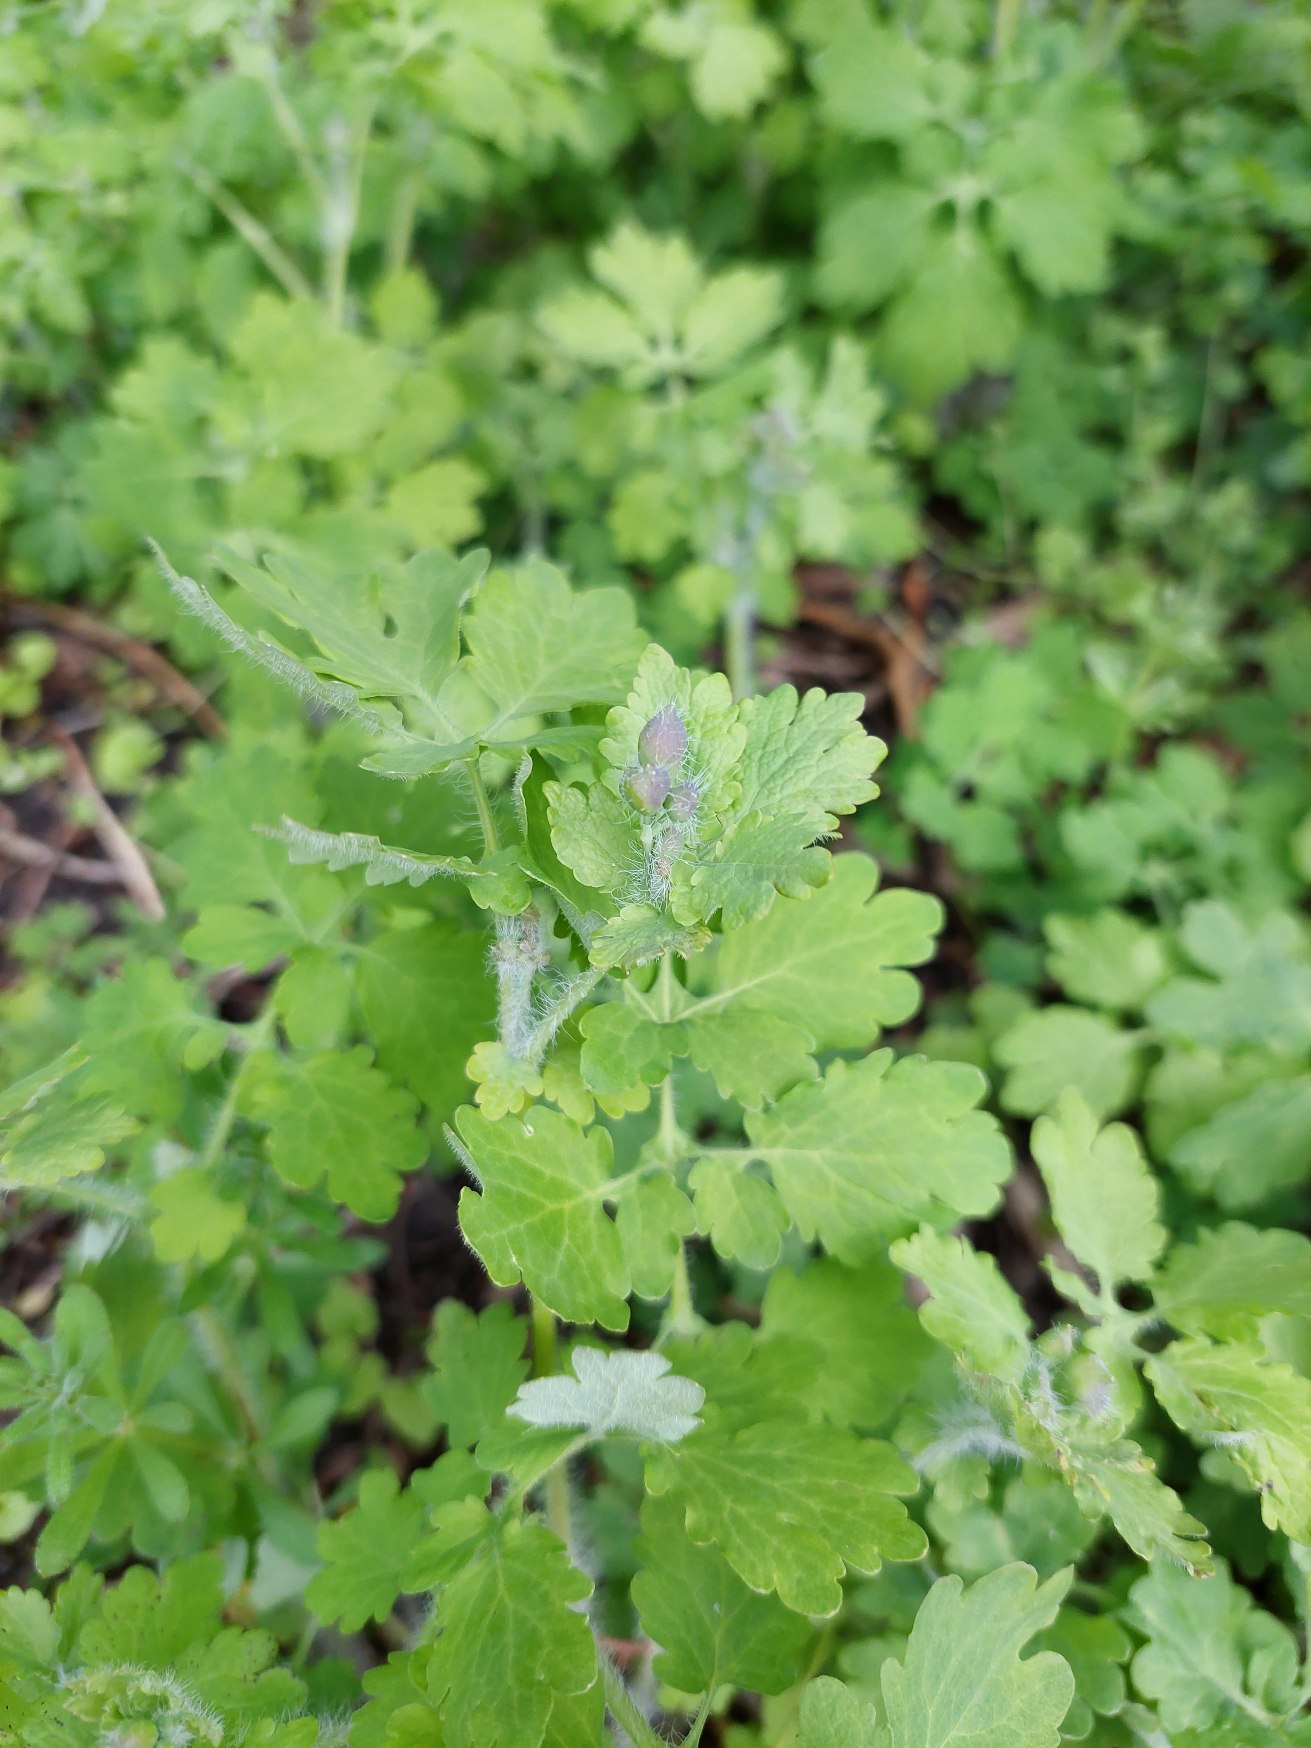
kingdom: Plantae
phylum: Tracheophyta
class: Magnoliopsida
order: Ranunculales
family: Papaveraceae
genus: Chelidonium
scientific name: Chelidonium majus
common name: Svaleurt
